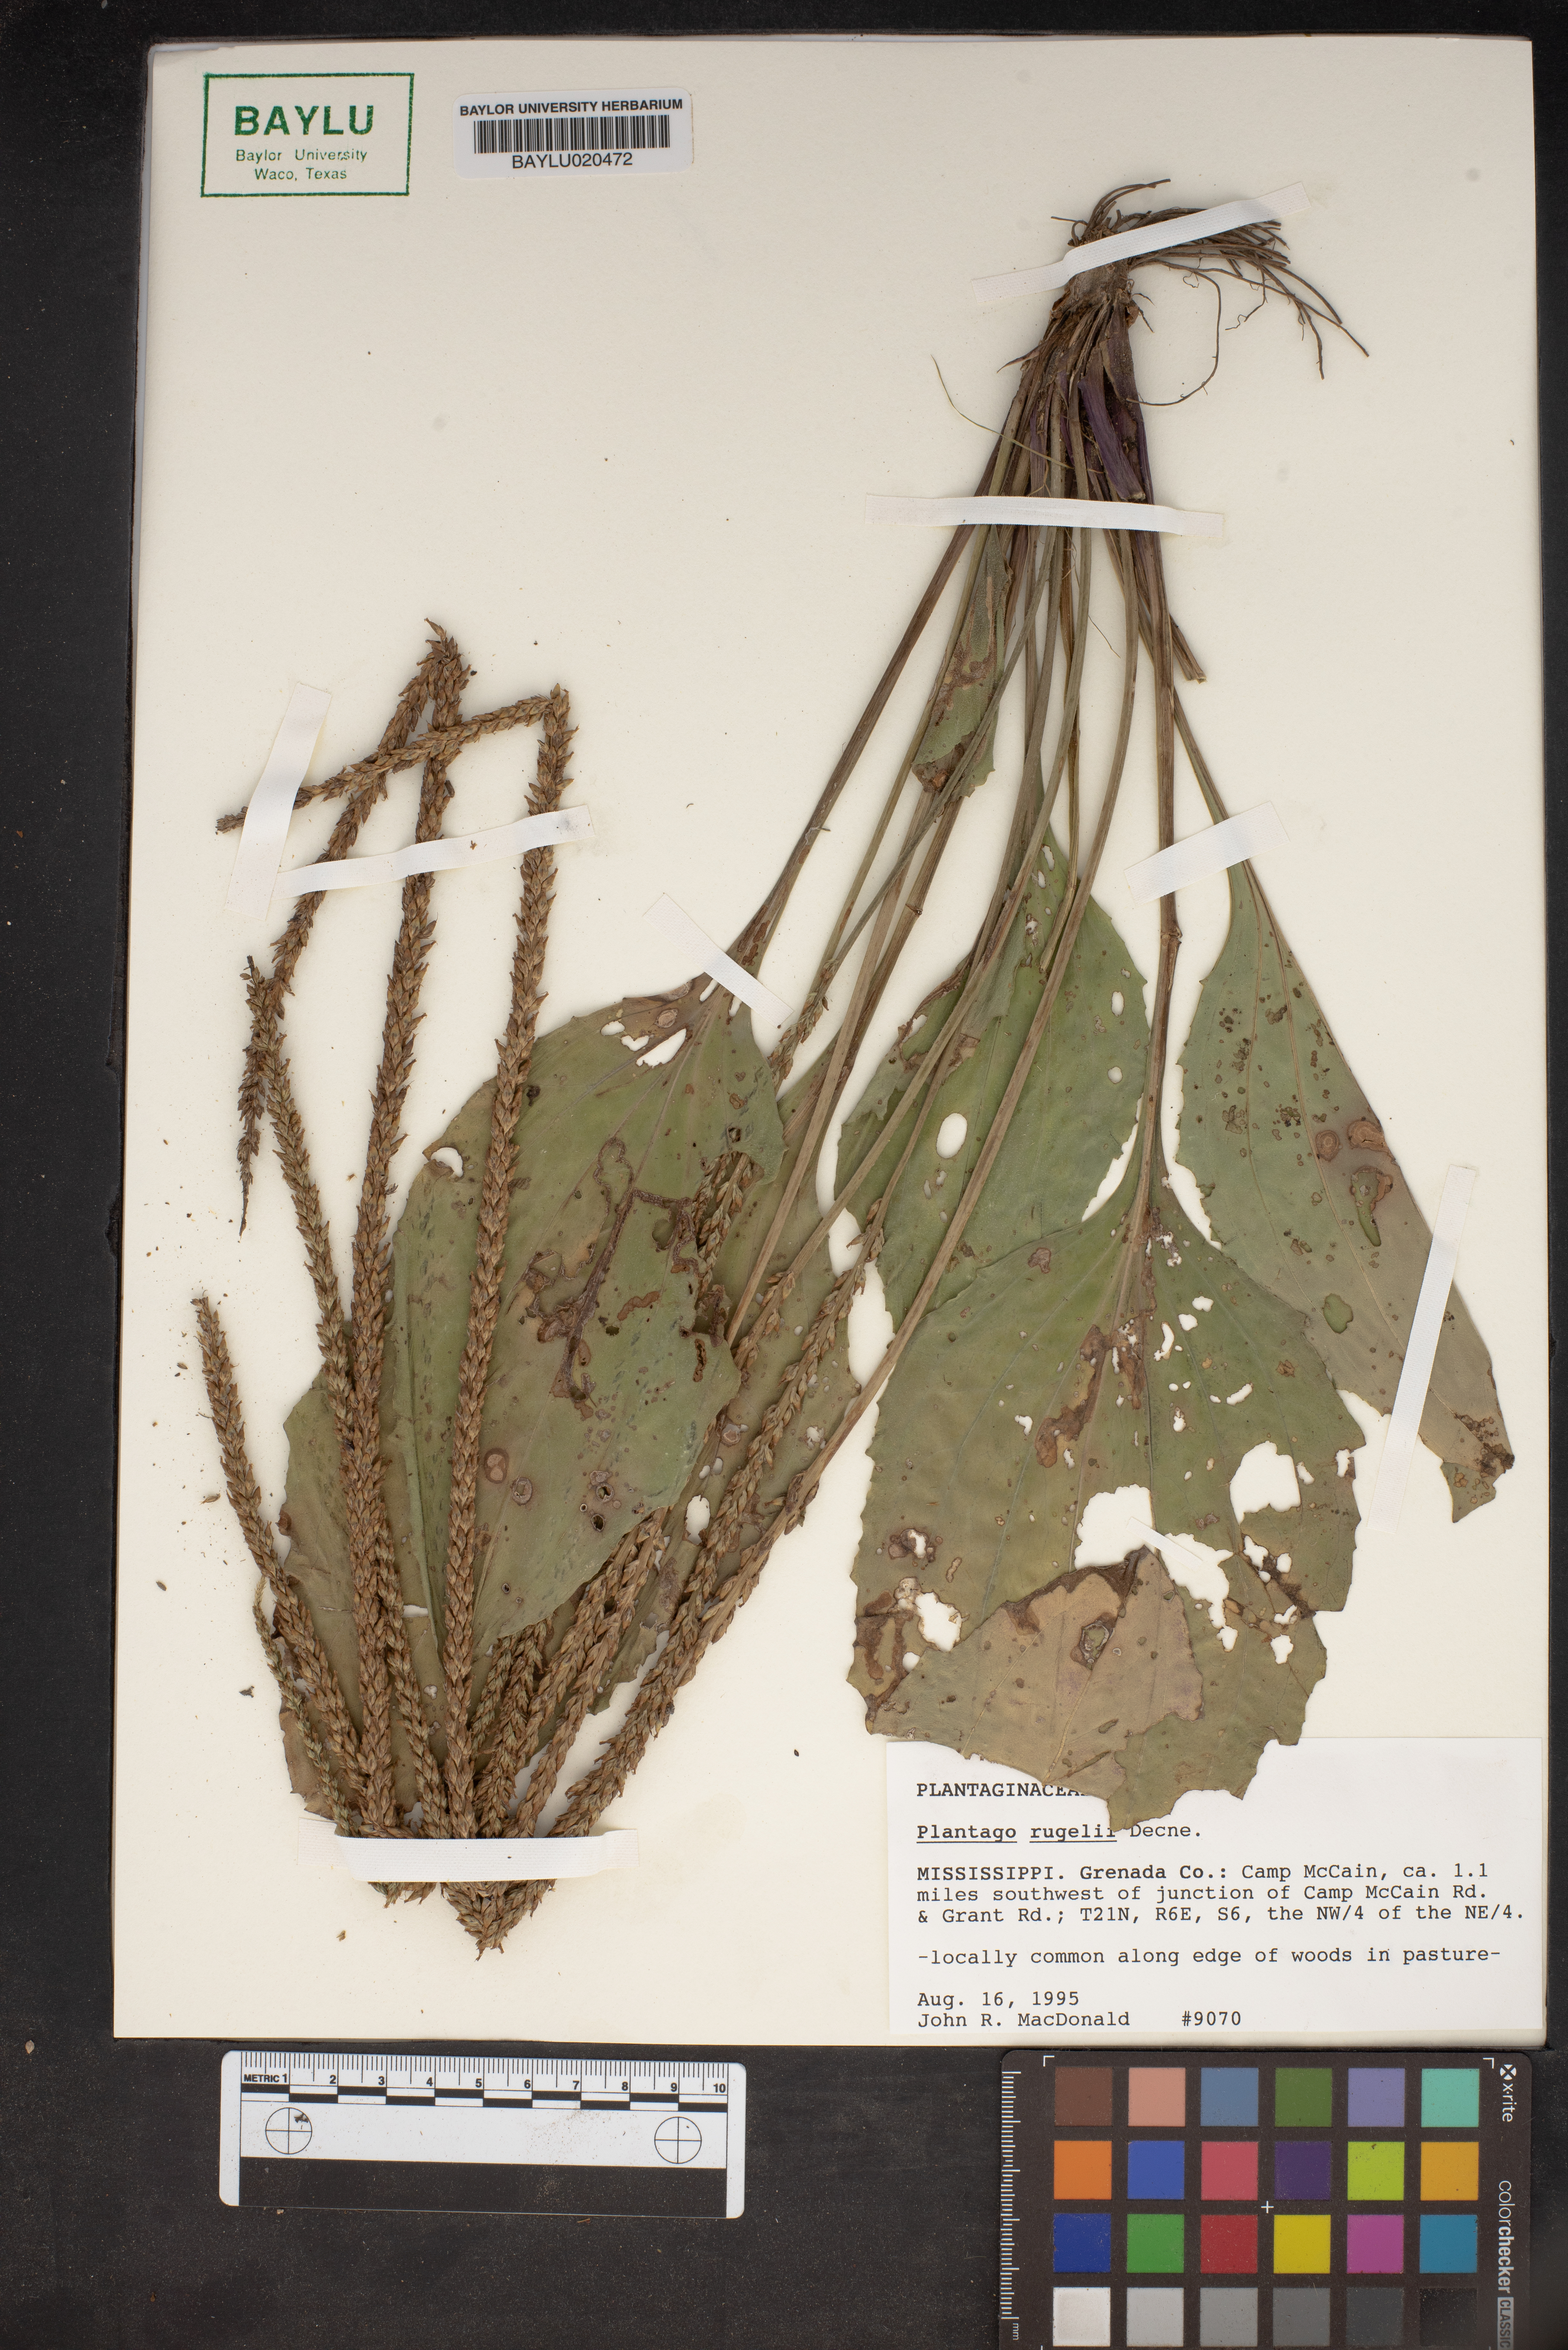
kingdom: Plantae
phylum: Tracheophyta
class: Magnoliopsida
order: Lamiales
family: Plantaginaceae
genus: Plantago
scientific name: Plantago rugelii
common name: American plantain
